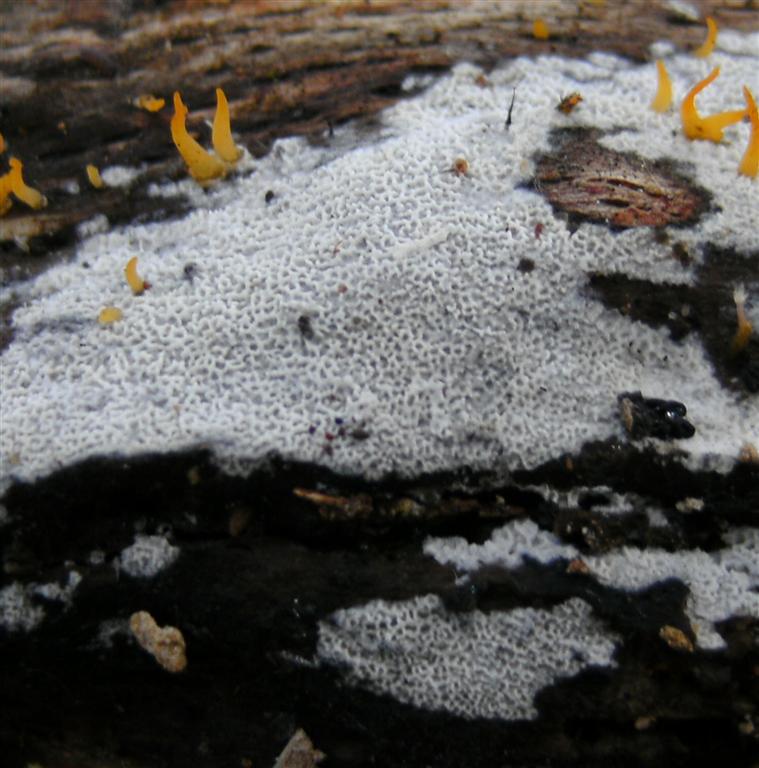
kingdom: Fungi
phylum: Basidiomycota
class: Agaricomycetes
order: Polyporales
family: Irpicaceae
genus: Ceriporia
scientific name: Ceriporia reticulata
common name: netagtig voksporesvamp
